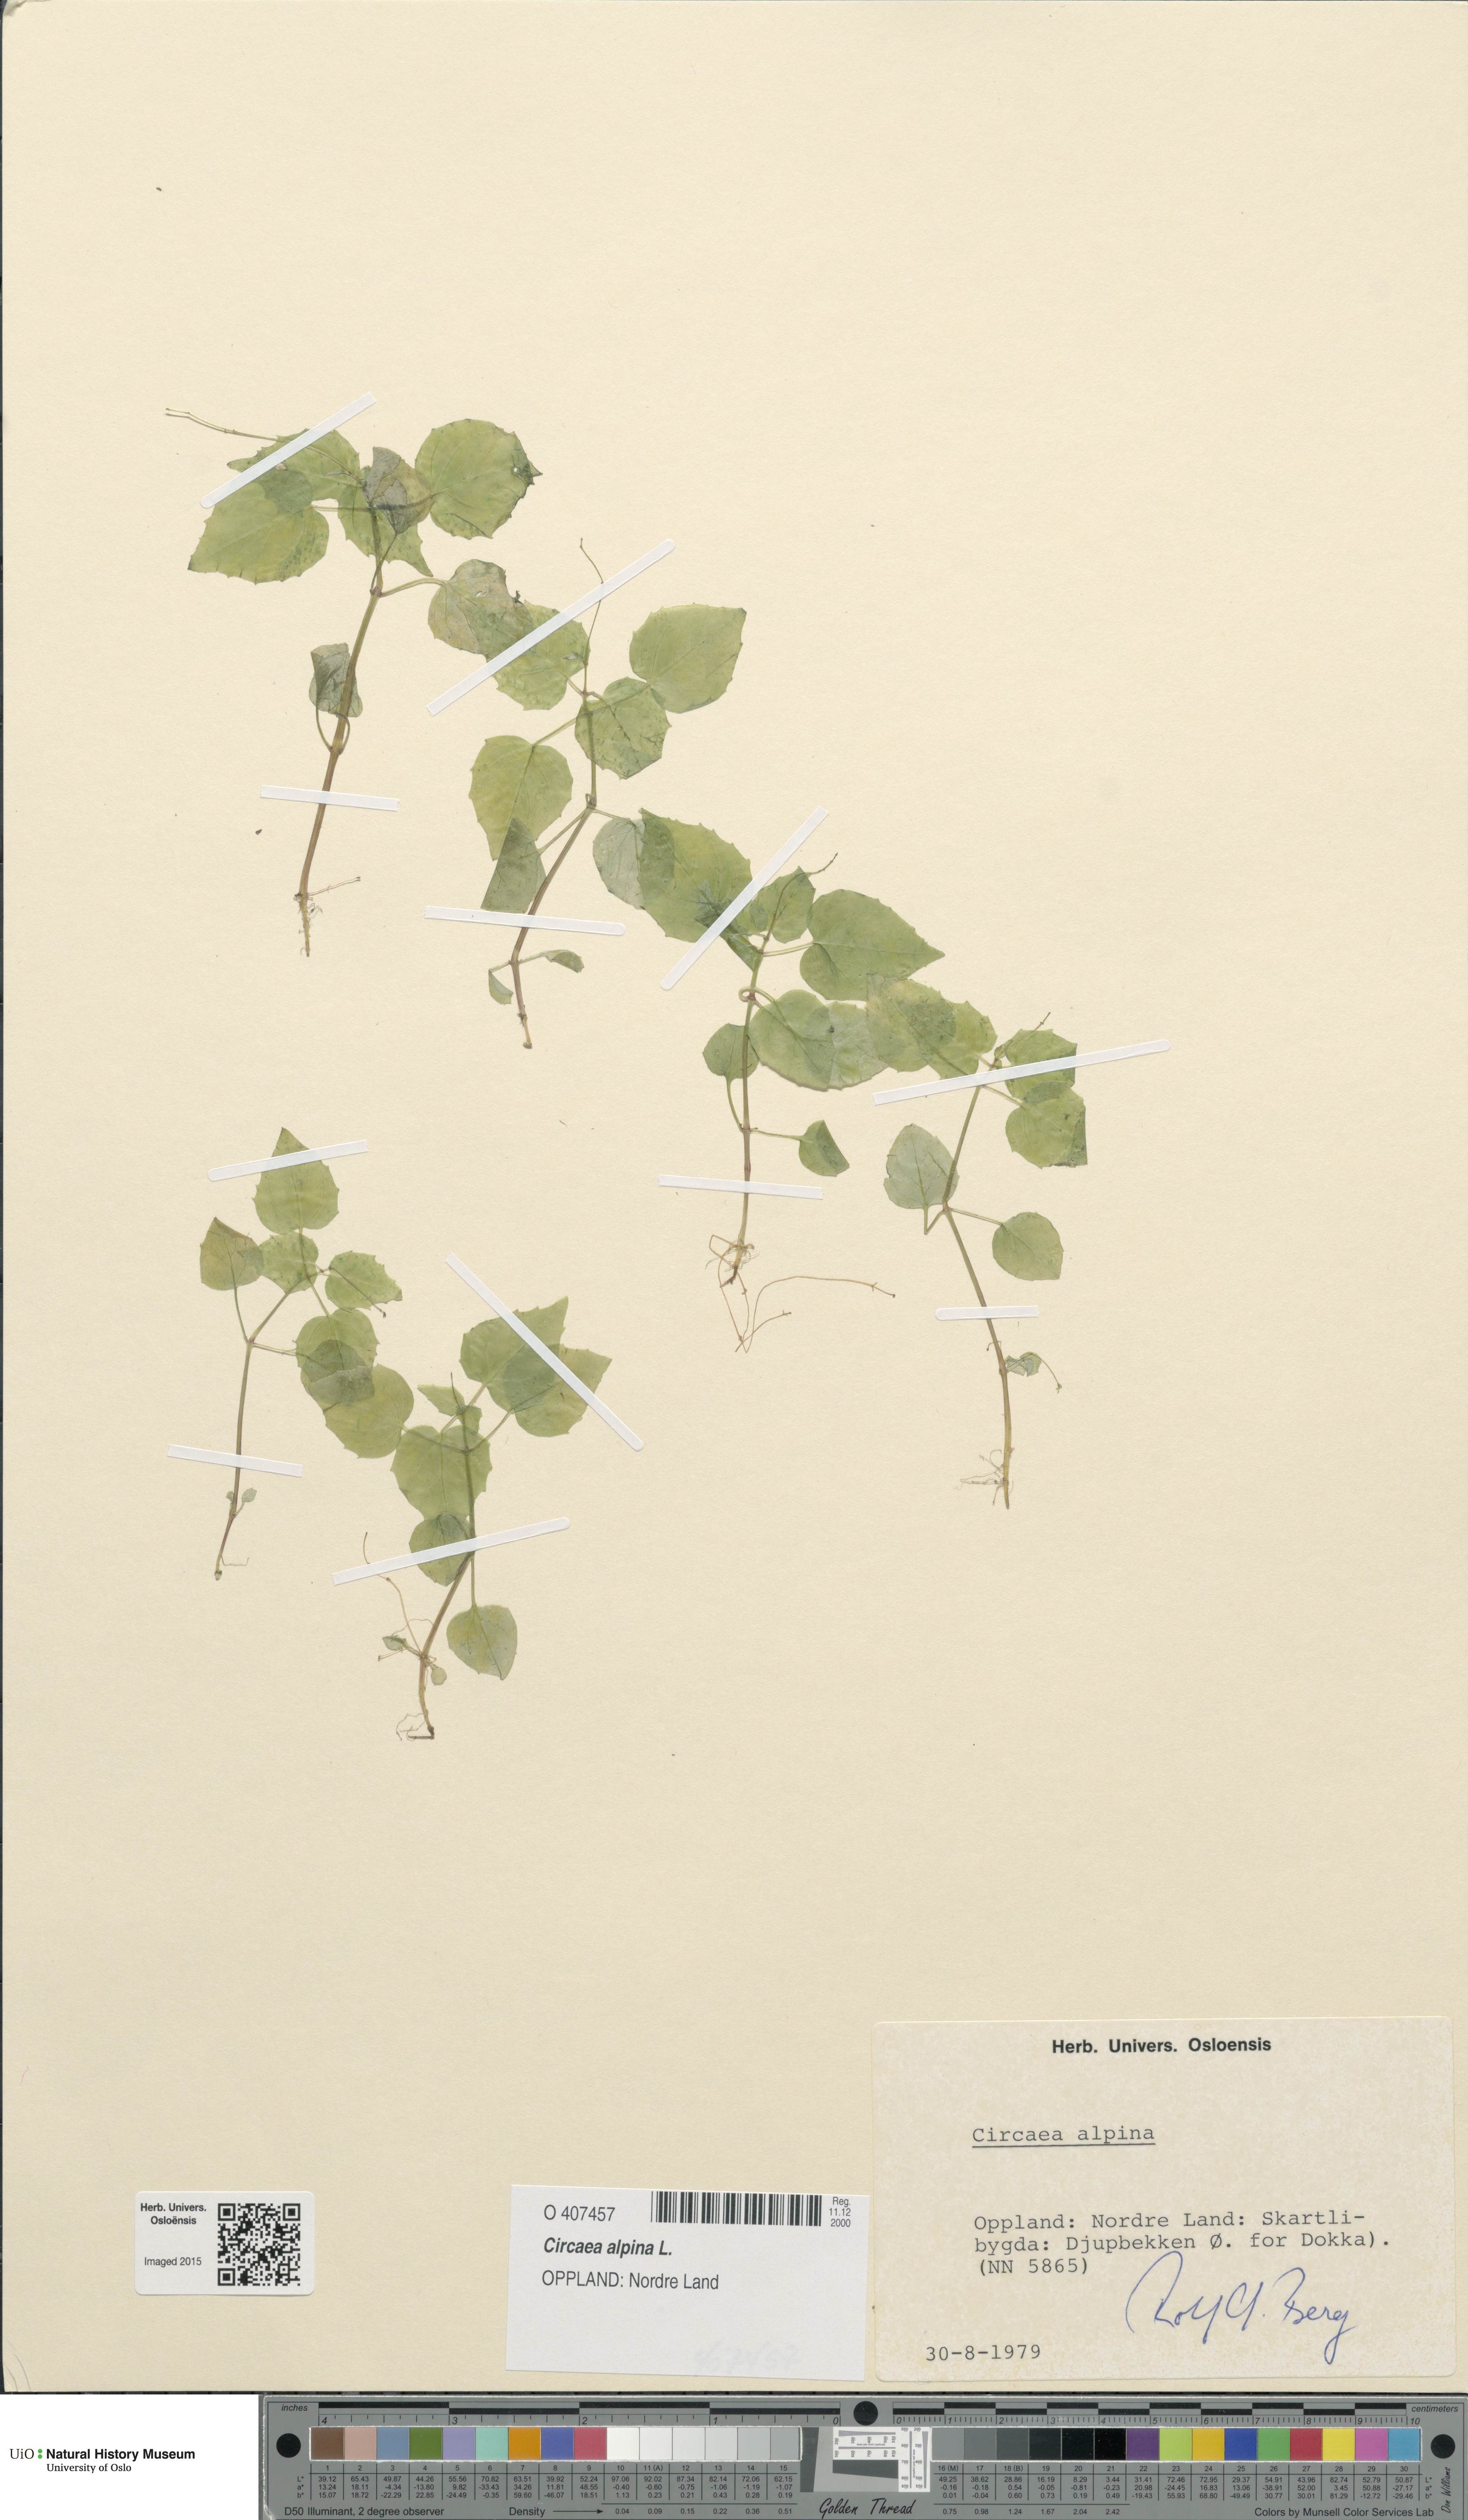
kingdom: Plantae
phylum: Tracheophyta
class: Magnoliopsida
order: Myrtales
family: Onagraceae
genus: Circaea
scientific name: Circaea alpina
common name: Alpine enchanter's-nightshade
